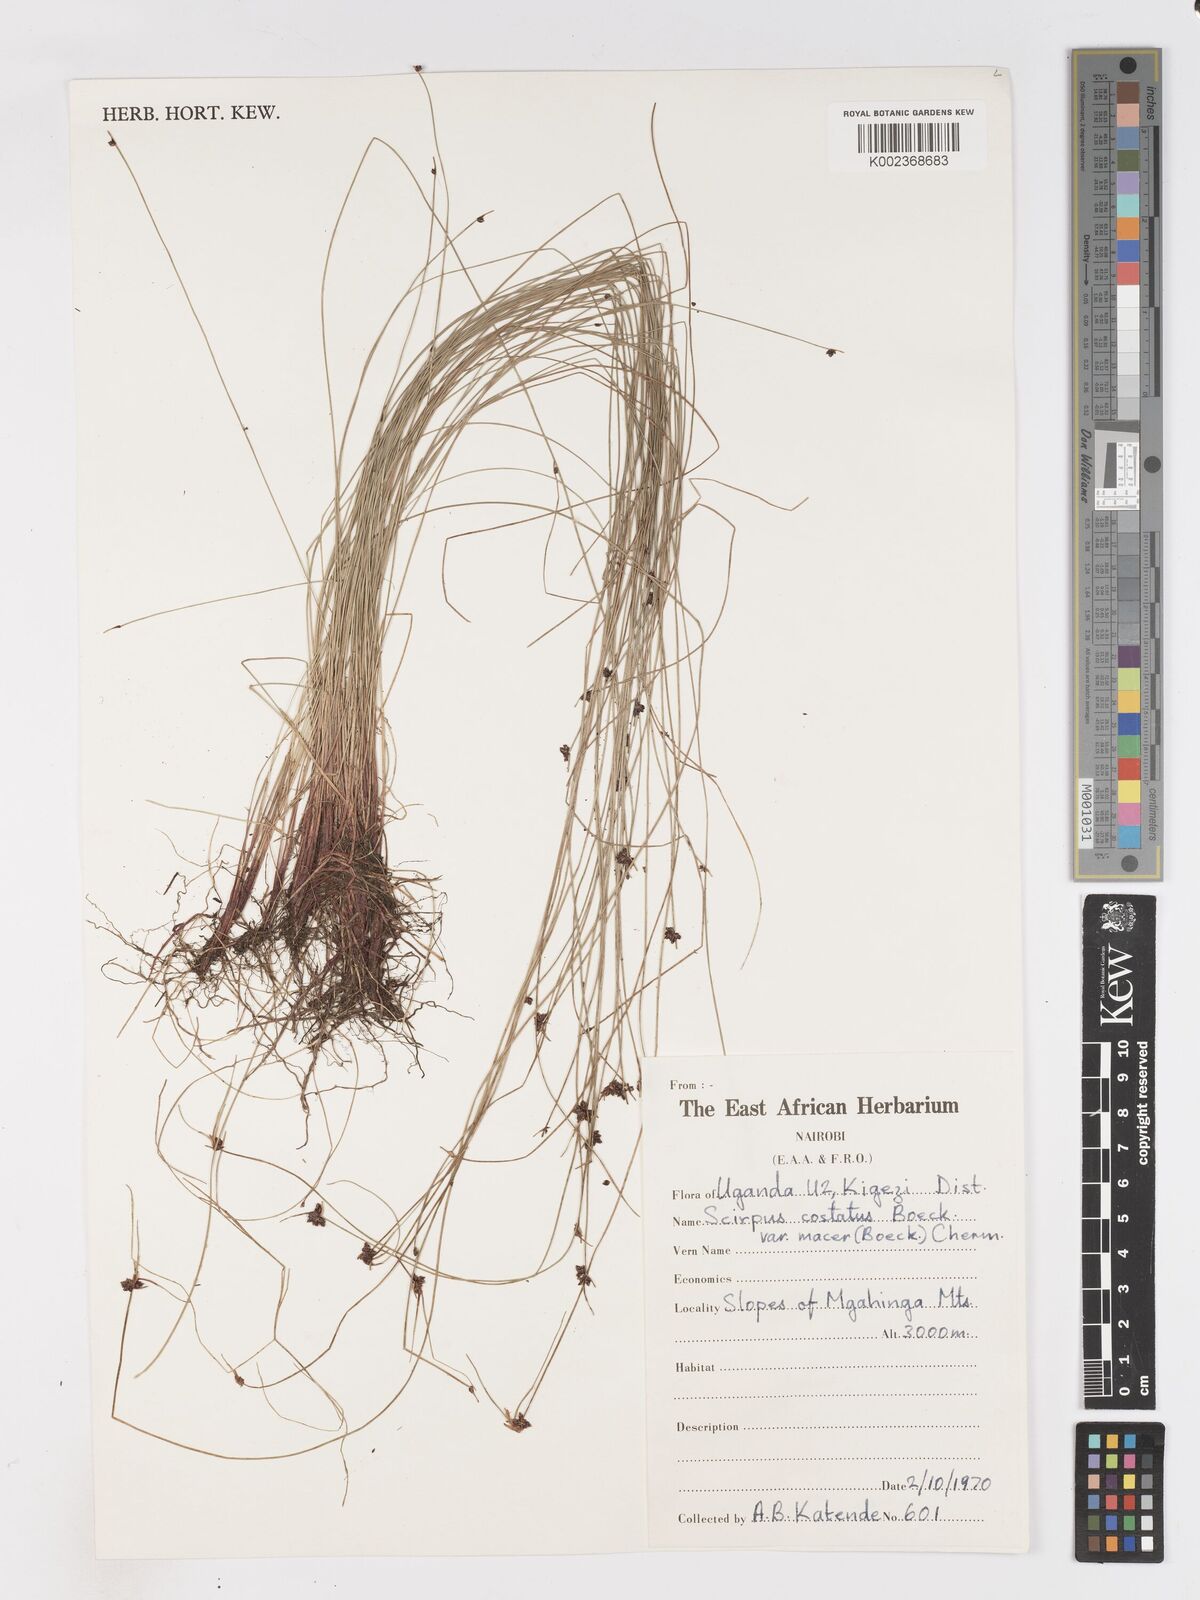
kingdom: Plantae
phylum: Tracheophyta
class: Liliopsida
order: Poales
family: Cyperaceae
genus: Isolepis
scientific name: Isolepis costata
